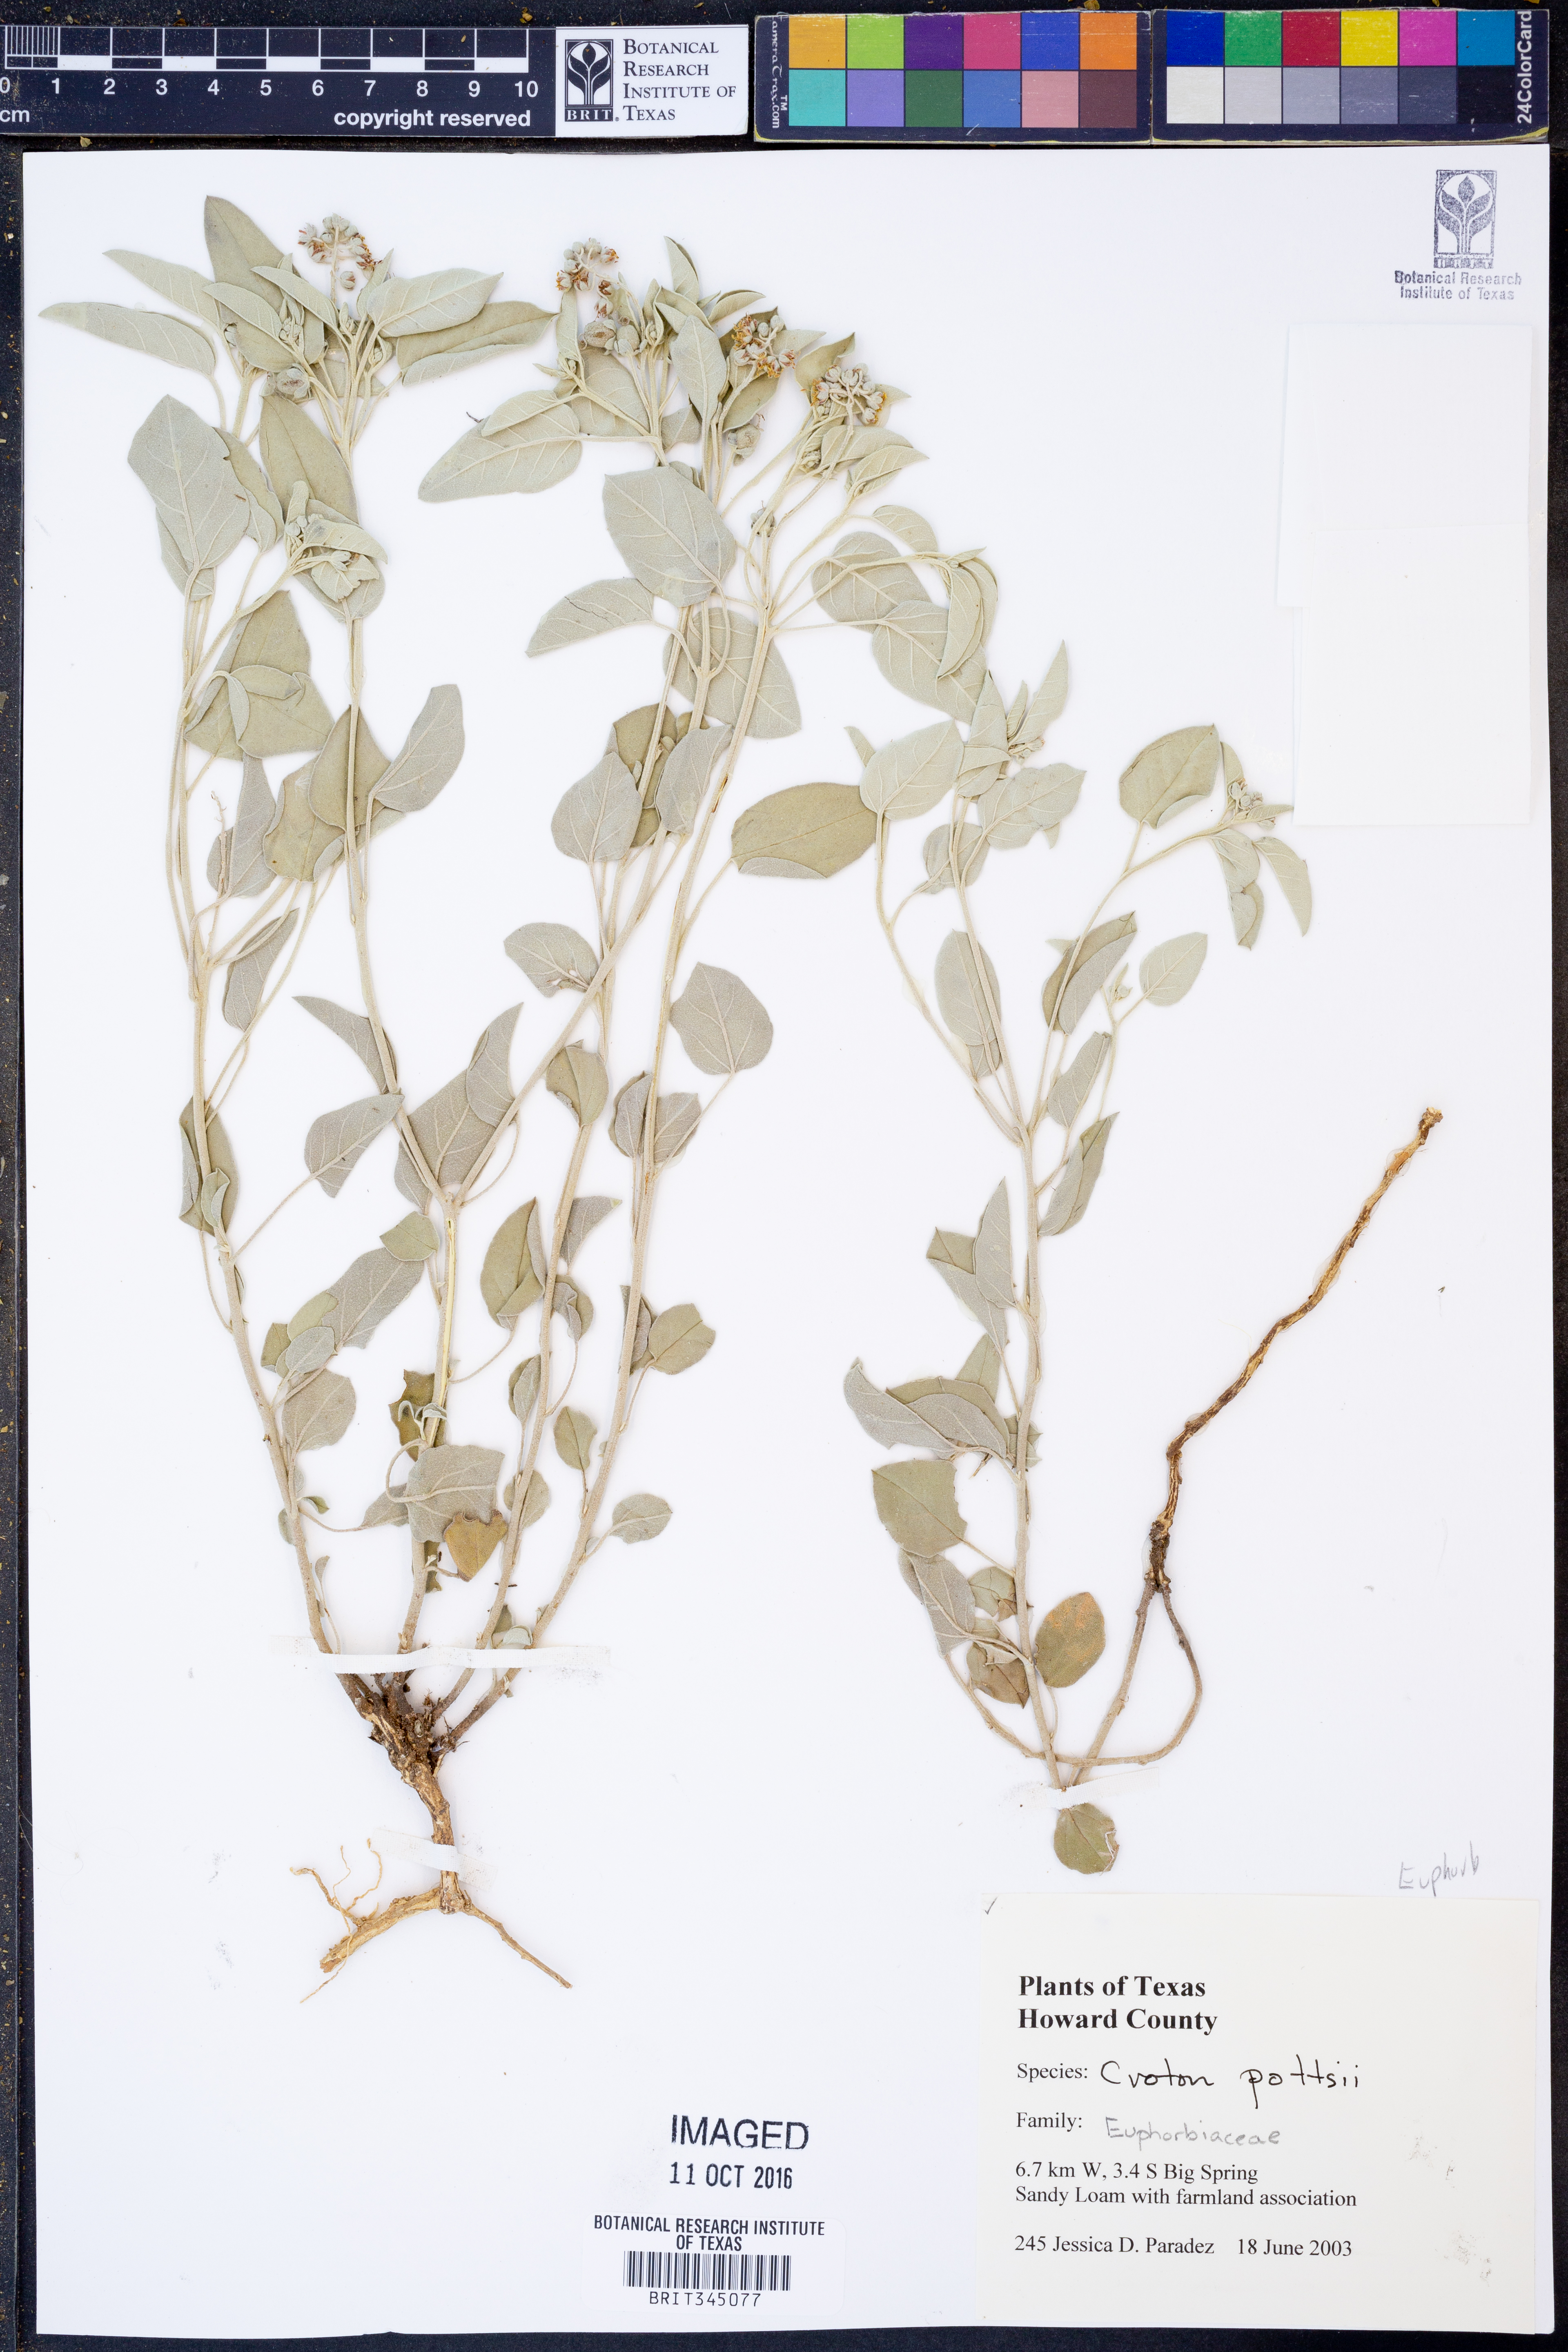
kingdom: Plantae
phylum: Tracheophyta
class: Magnoliopsida
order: Malpighiales
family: Euphorbiaceae
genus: Croton
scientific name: Croton pottsii
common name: Leatherweed
